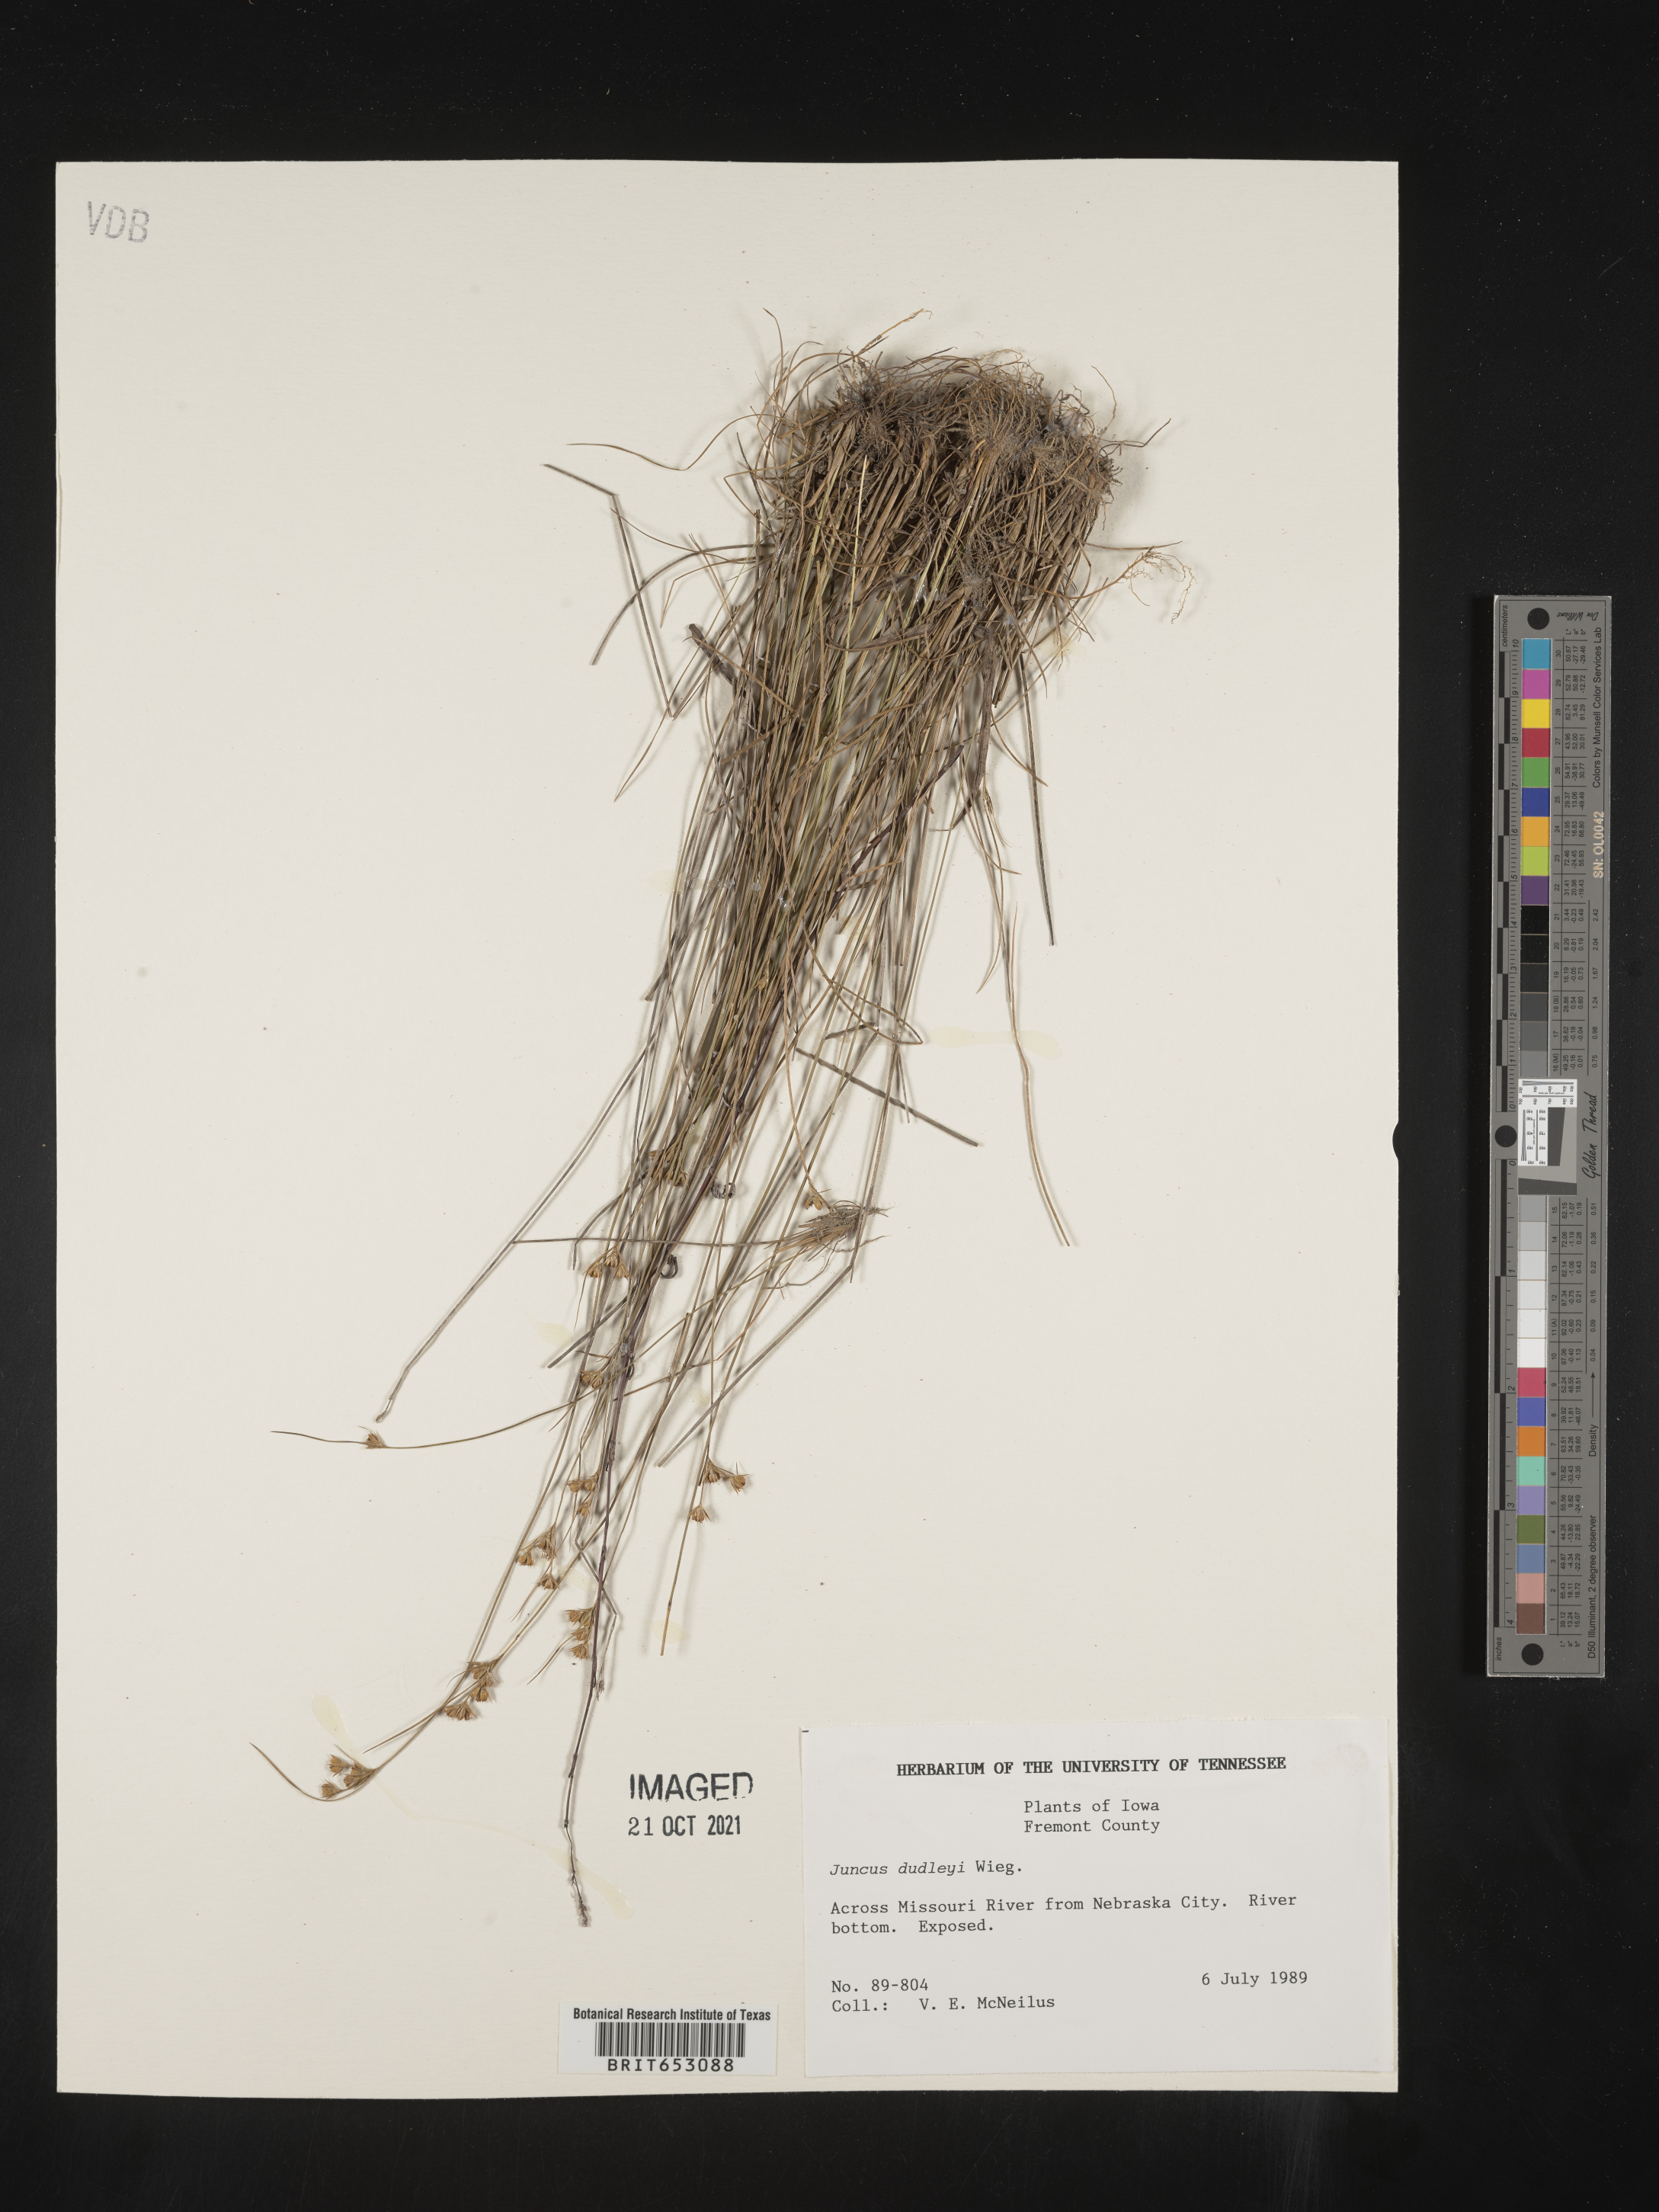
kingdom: Plantae
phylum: Tracheophyta
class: Liliopsida
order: Poales
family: Juncaceae
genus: Juncus
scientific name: Juncus dudleyi
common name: Dudley's rush
